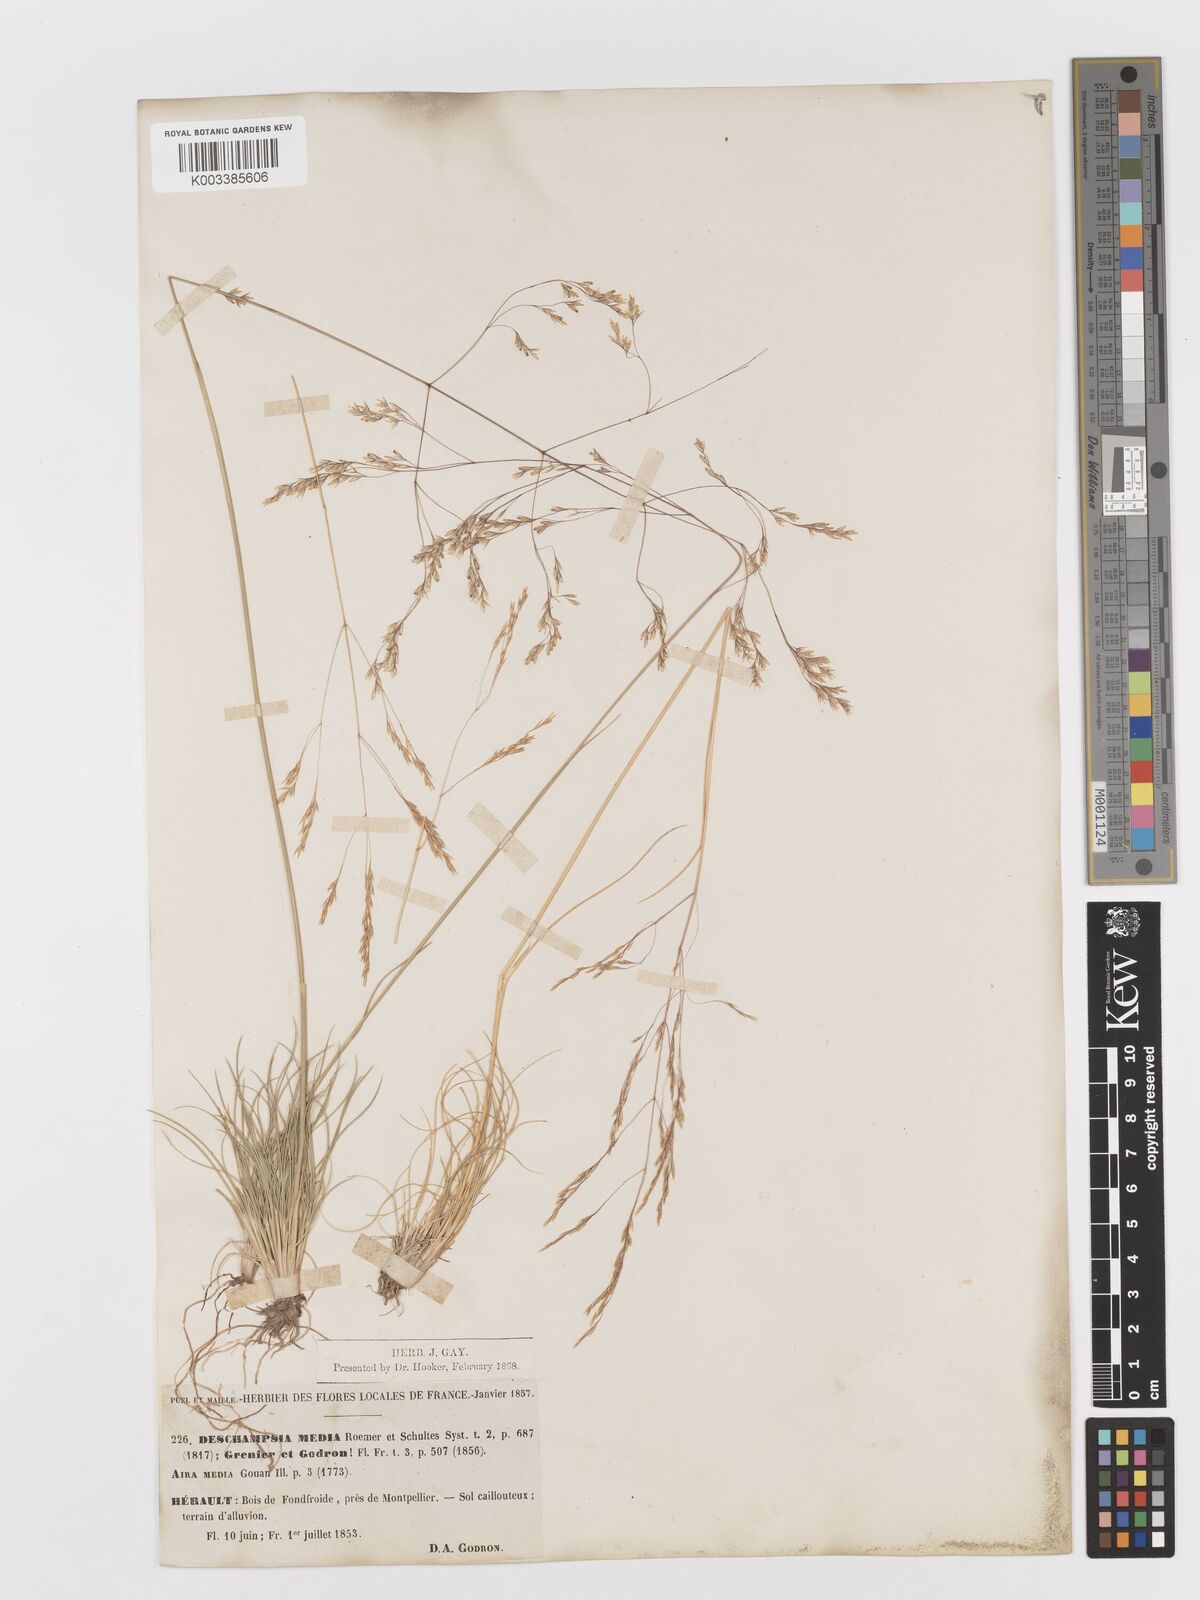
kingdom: Plantae
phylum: Tracheophyta
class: Liliopsida
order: Poales
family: Poaceae
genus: Deschampsia
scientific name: Deschampsia media
